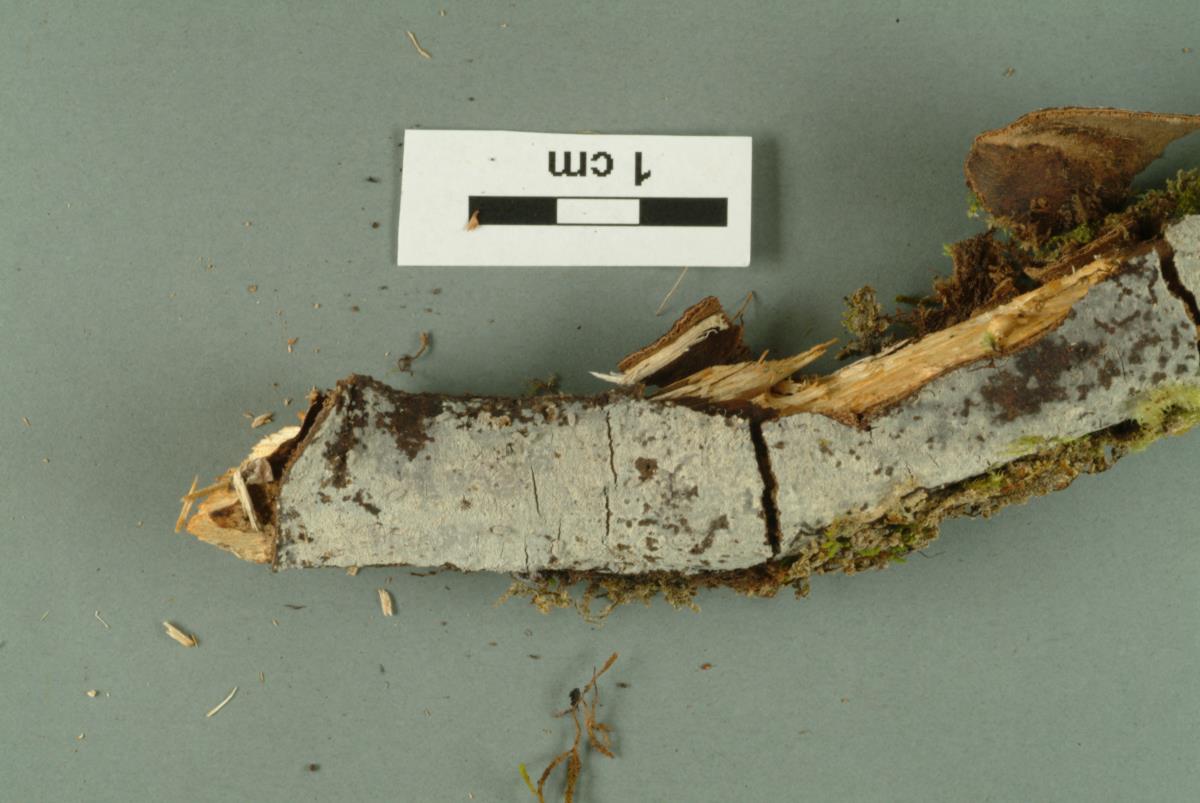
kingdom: Fungi
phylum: Basidiomycota
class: Agaricomycetes
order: Polyporales
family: Meruliaceae
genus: Scopuloides
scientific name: Scopuloides hydnoides
